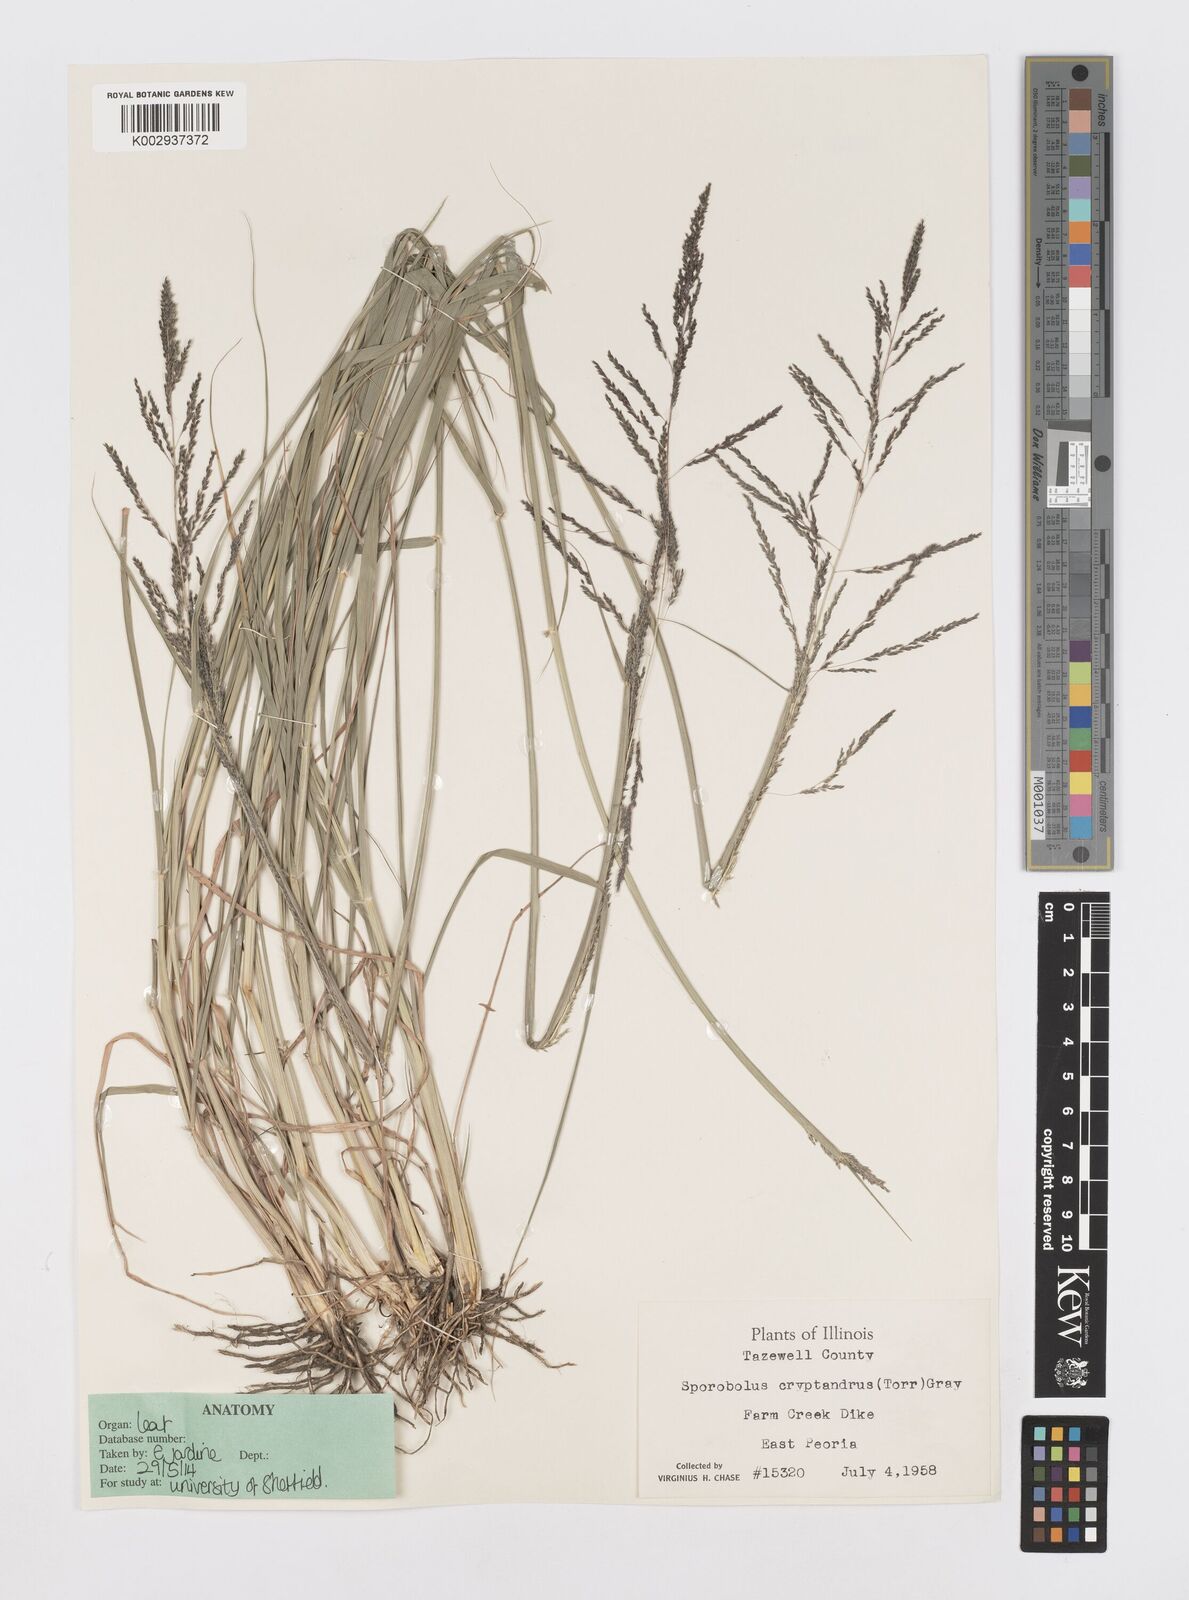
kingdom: Plantae
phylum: Tracheophyta
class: Liliopsida
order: Poales
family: Poaceae
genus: Sporobolus
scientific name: Sporobolus cryptandrus
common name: Sand dropseed
